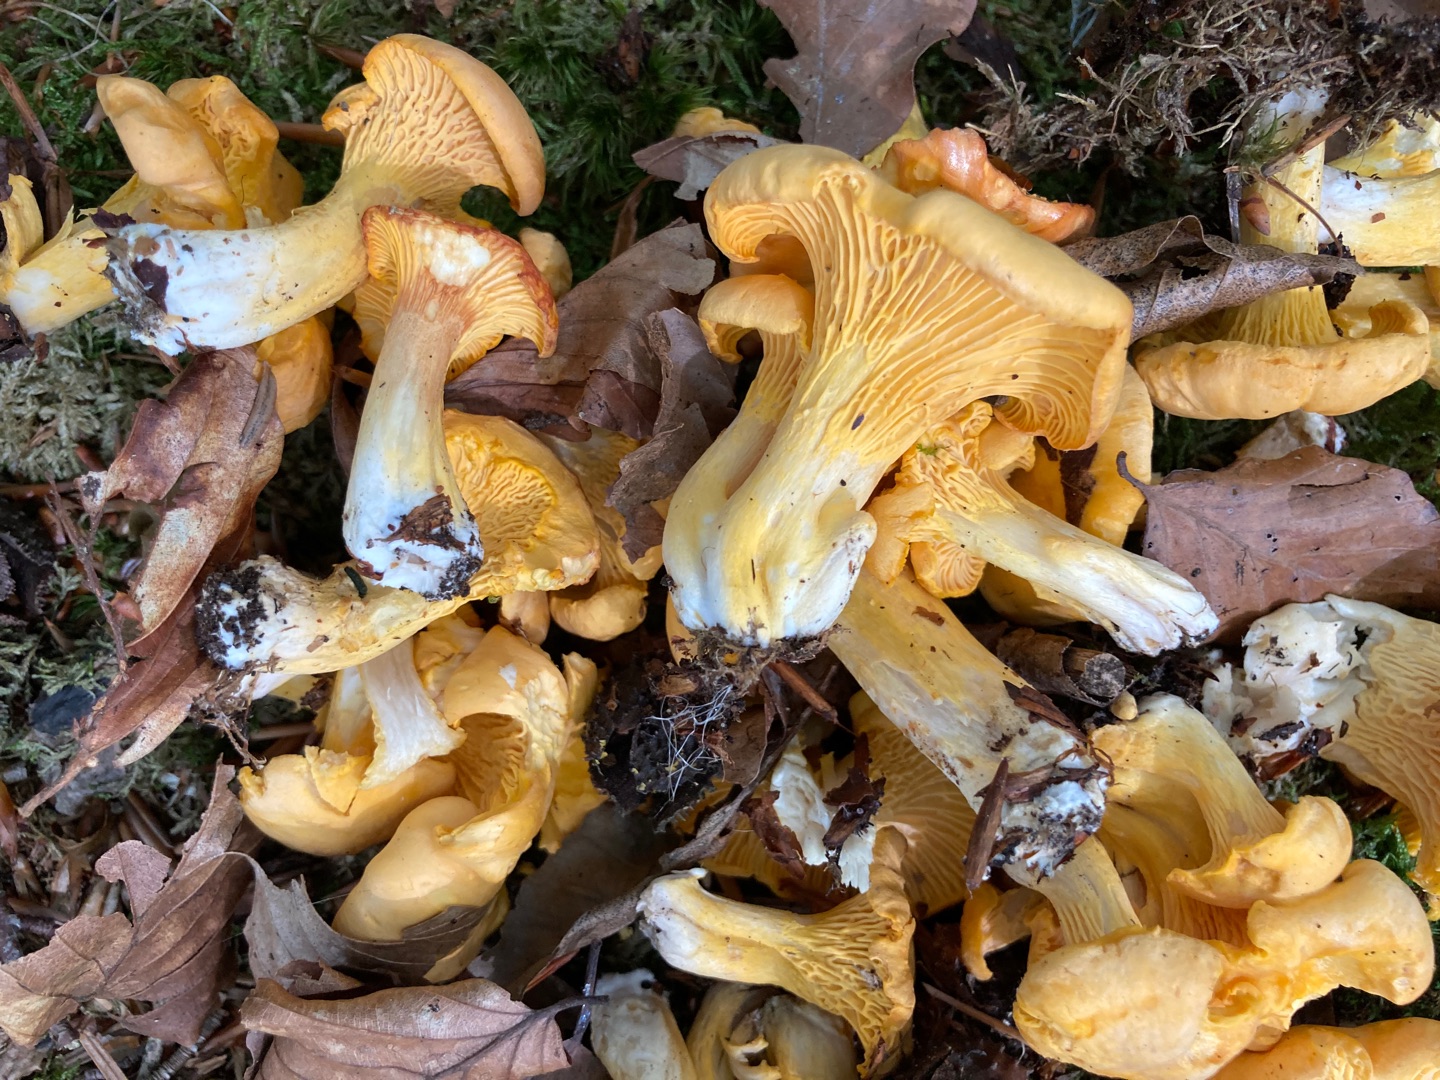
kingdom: Fungi
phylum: Basidiomycota
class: Agaricomycetes
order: Cantharellales
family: Hydnaceae
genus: Cantharellus
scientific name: Cantharellus cibarius
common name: Almindelig kantarel
